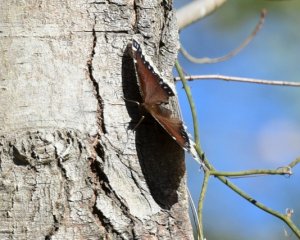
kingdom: Animalia
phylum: Arthropoda
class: Insecta
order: Lepidoptera
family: Nymphalidae
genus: Nymphalis
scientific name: Nymphalis antiopa
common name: Mourning Cloak
